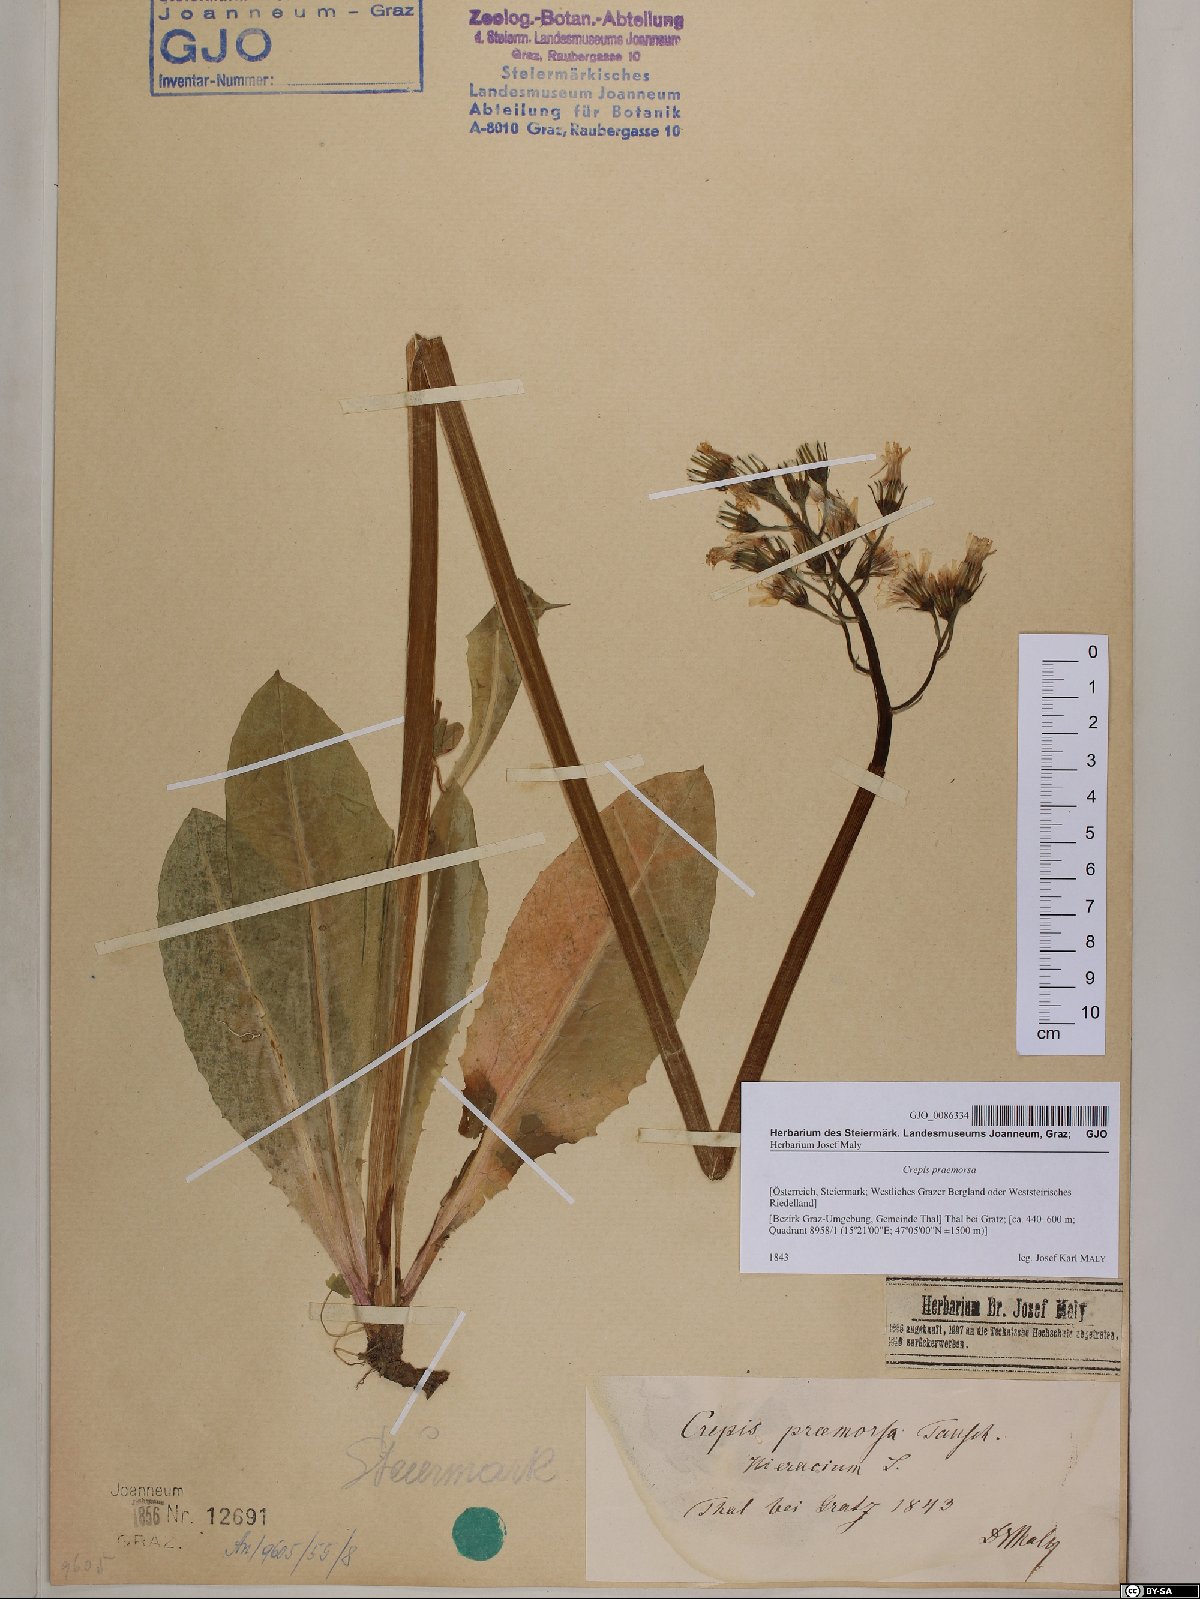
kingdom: Plantae
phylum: Tracheophyta
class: Magnoliopsida
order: Asterales
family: Asteraceae
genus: Crepis
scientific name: Crepis praemorsa
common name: Leafless hawk's-beard
